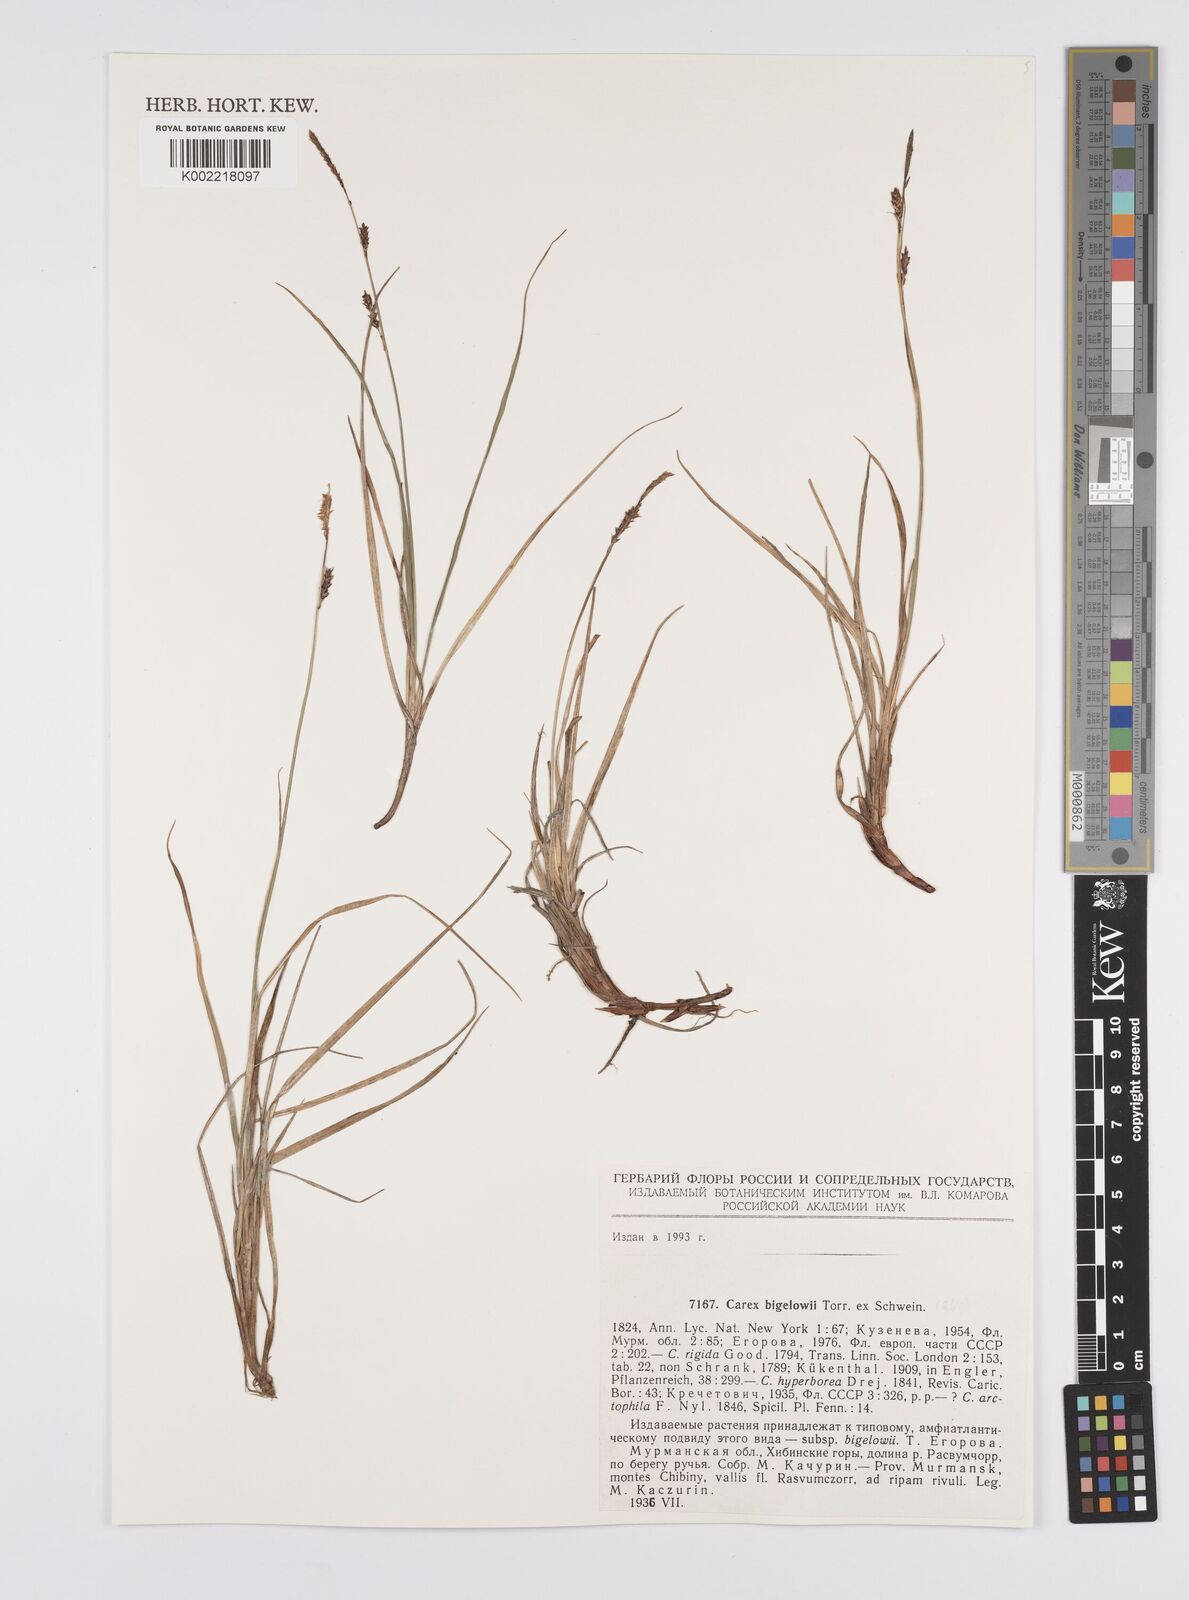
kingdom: Plantae
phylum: Tracheophyta
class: Liliopsida
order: Poales
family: Cyperaceae
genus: Carex
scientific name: Carex bigelowii
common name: Stiff sedge
